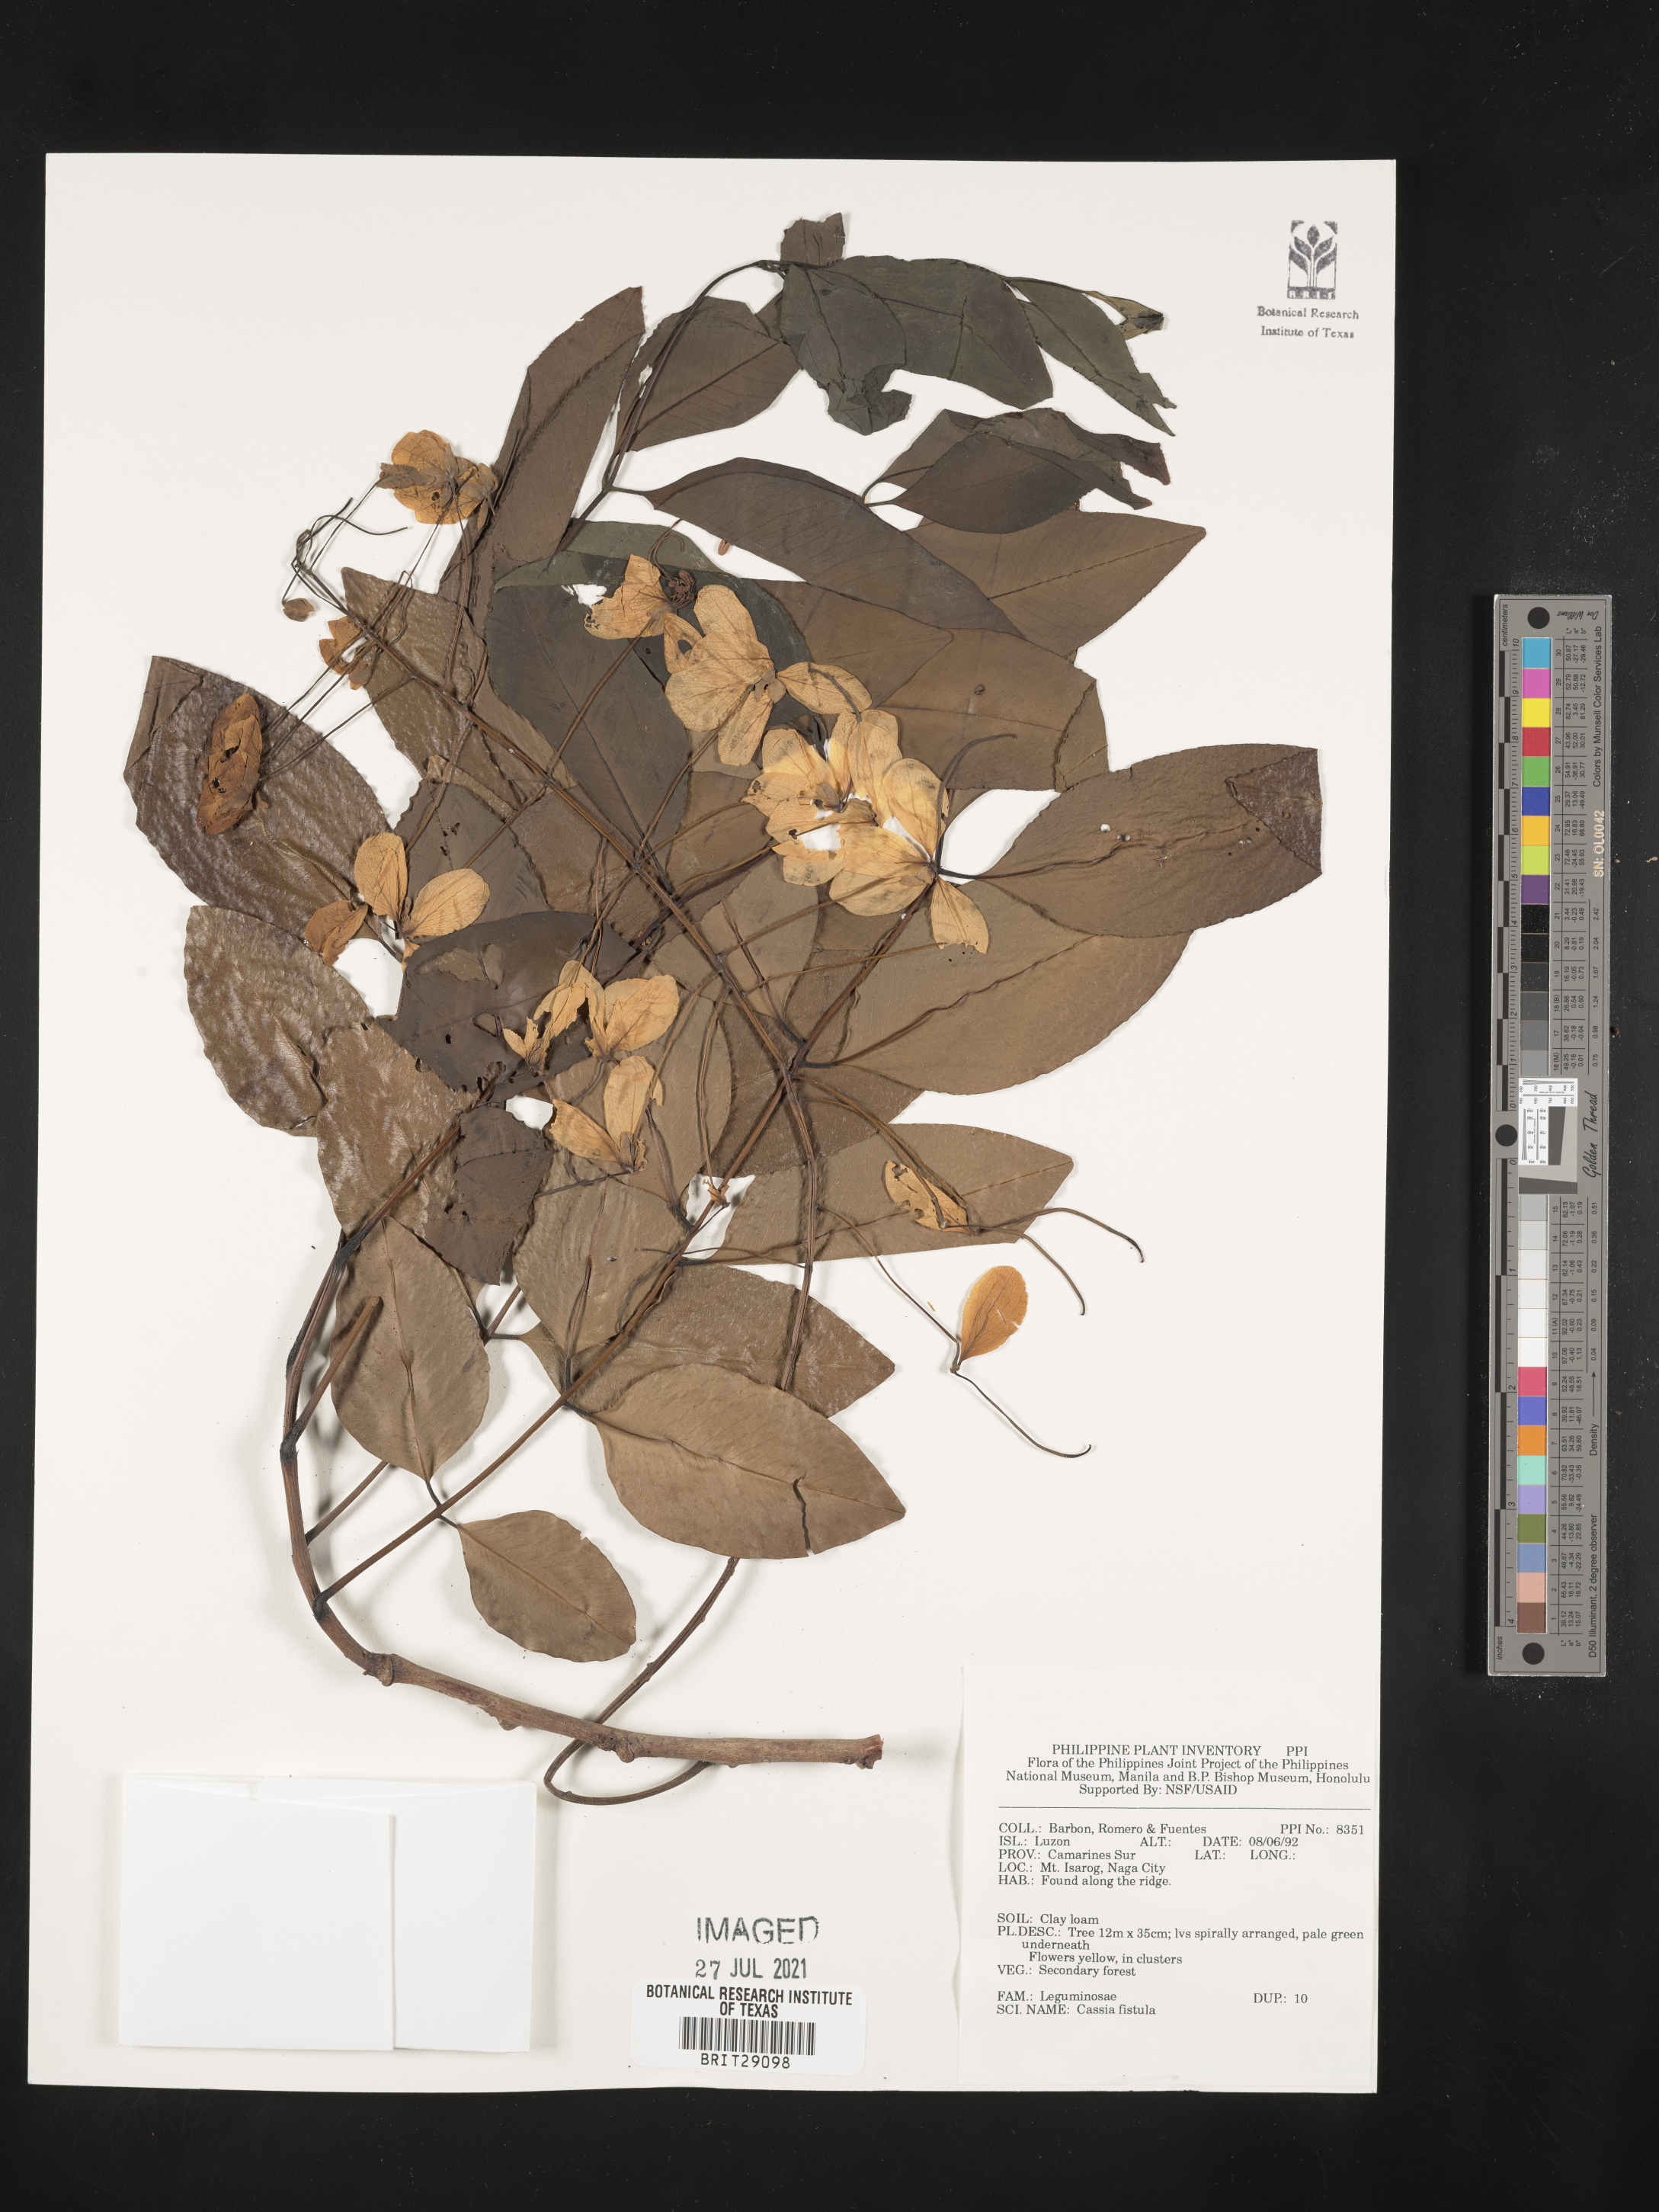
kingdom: Plantae
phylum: Tracheophyta
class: Magnoliopsida
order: Fabales
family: Fabaceae
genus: Cassia
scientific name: Cassia fistula
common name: Golden shower
